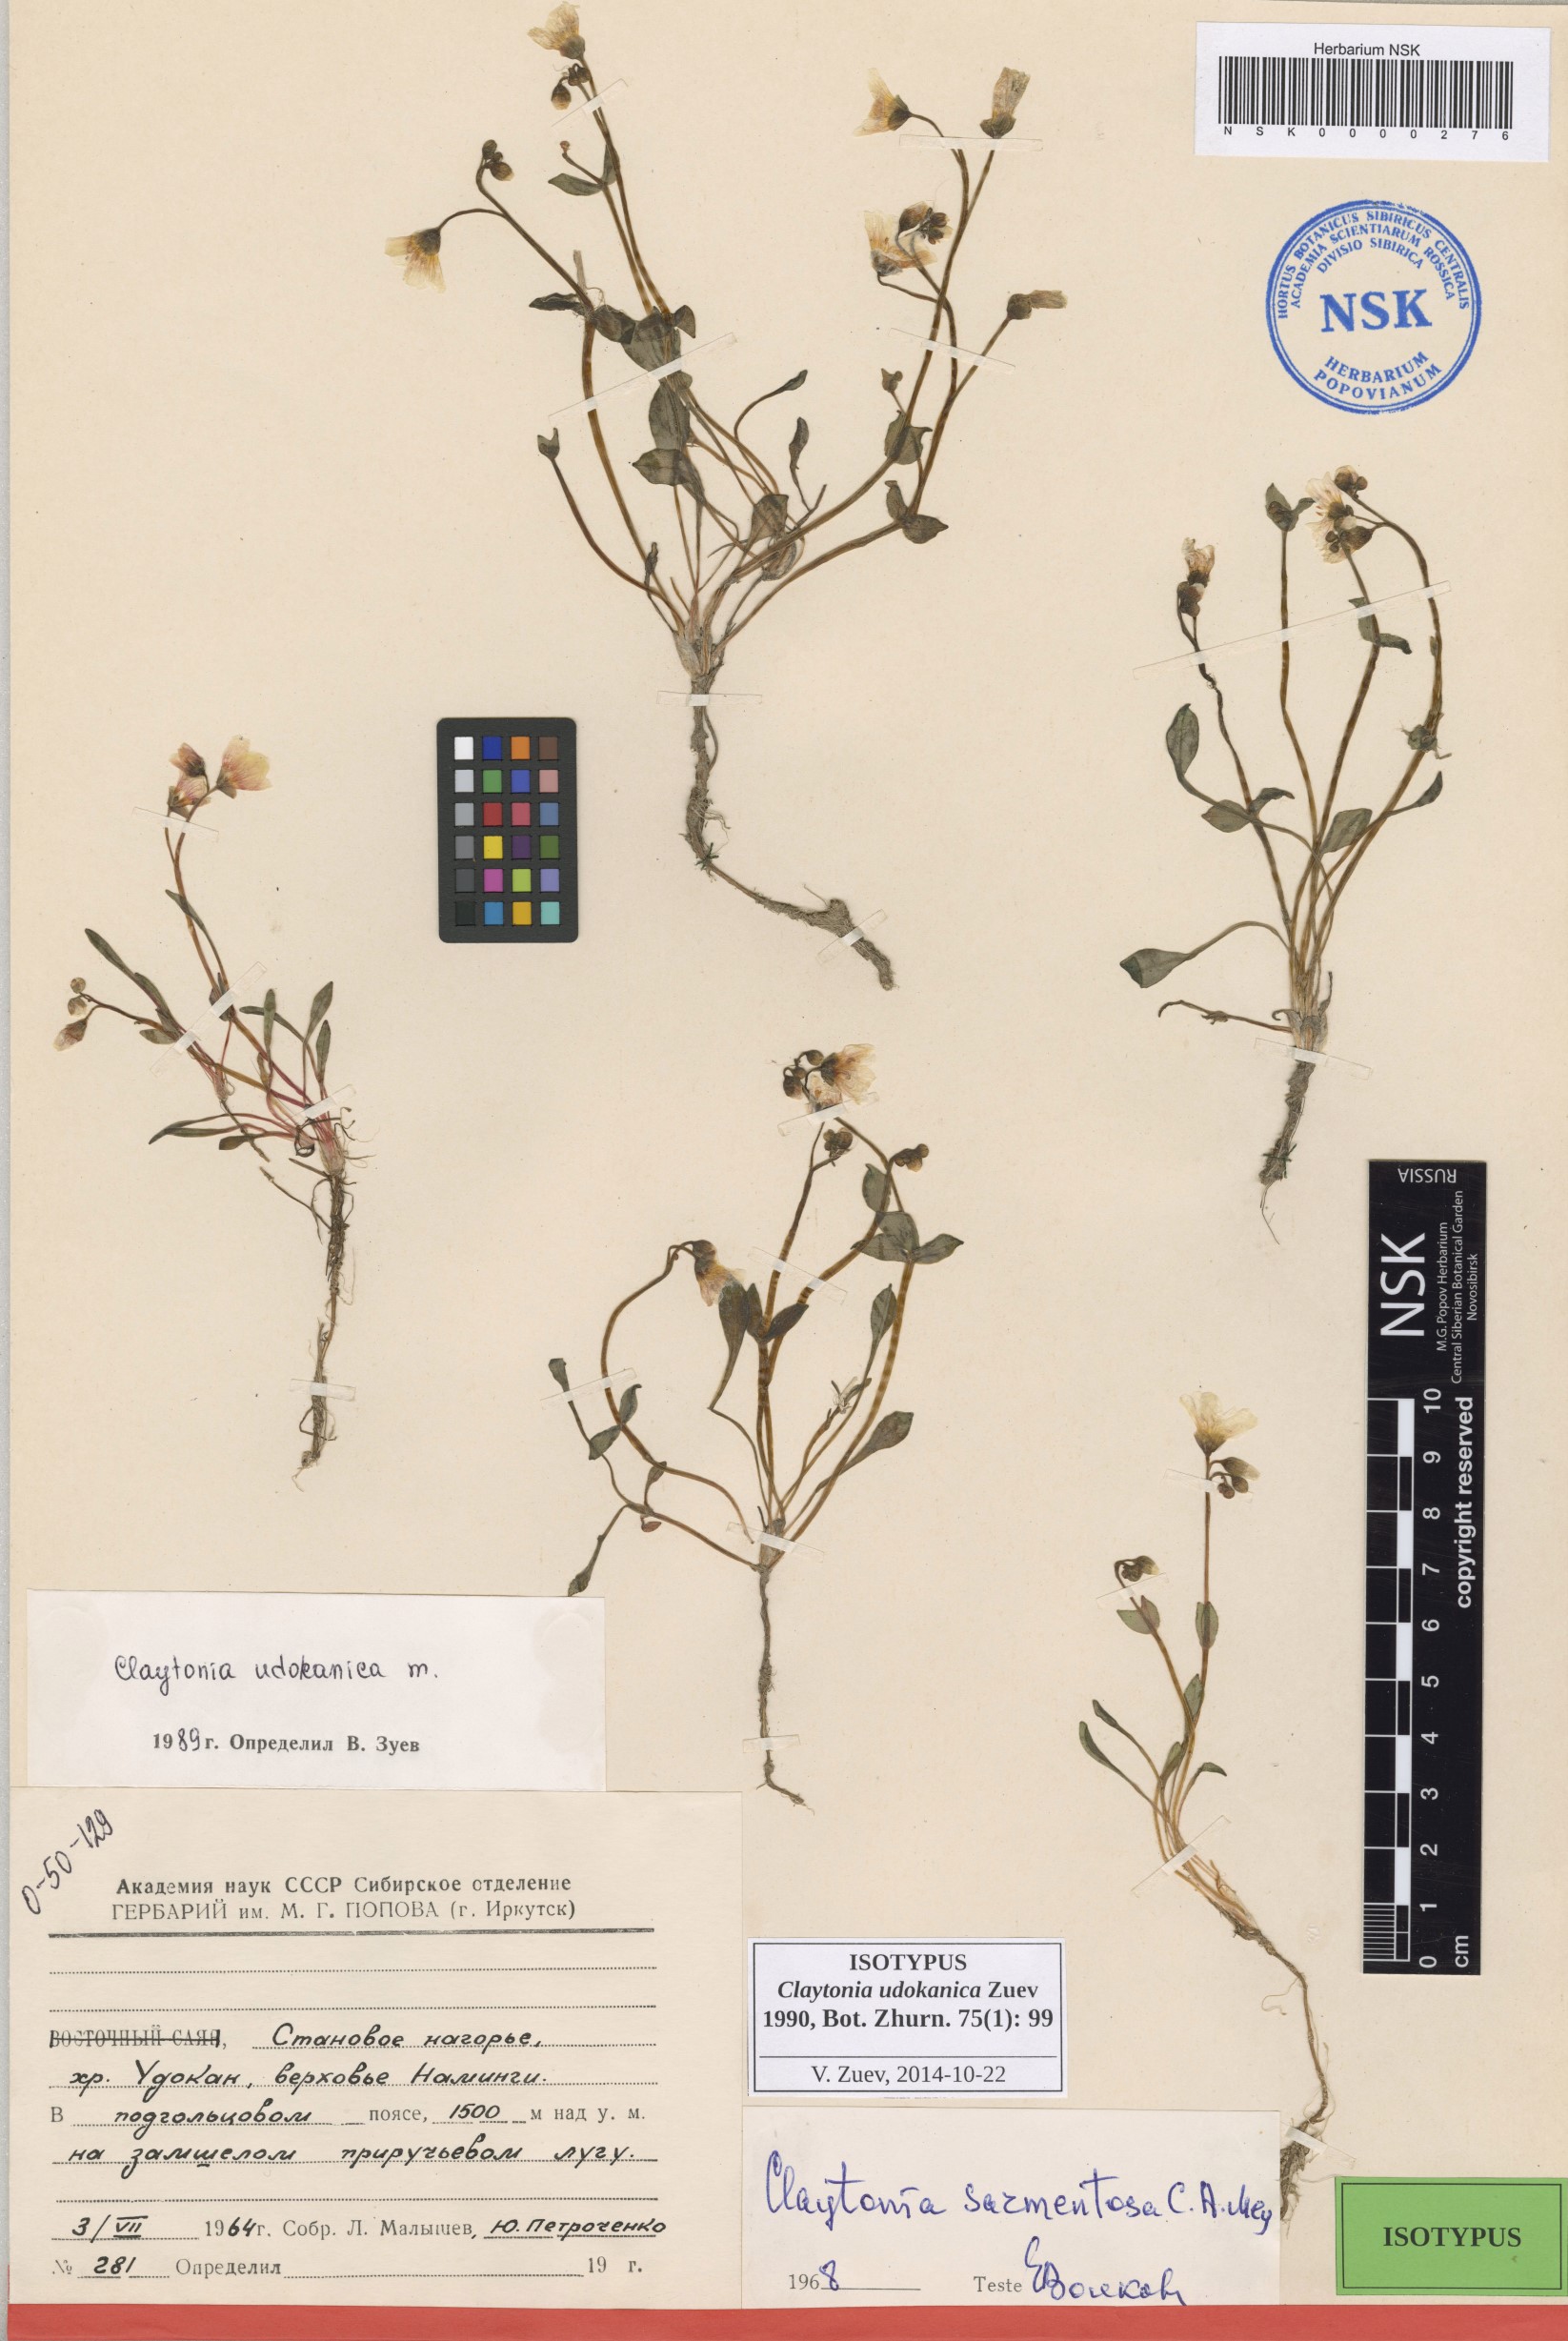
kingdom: Plantae
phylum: Tracheophyta
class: Magnoliopsida
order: Caryophyllales
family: Montiaceae
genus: Claytonia
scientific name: Claytonia udokanica
